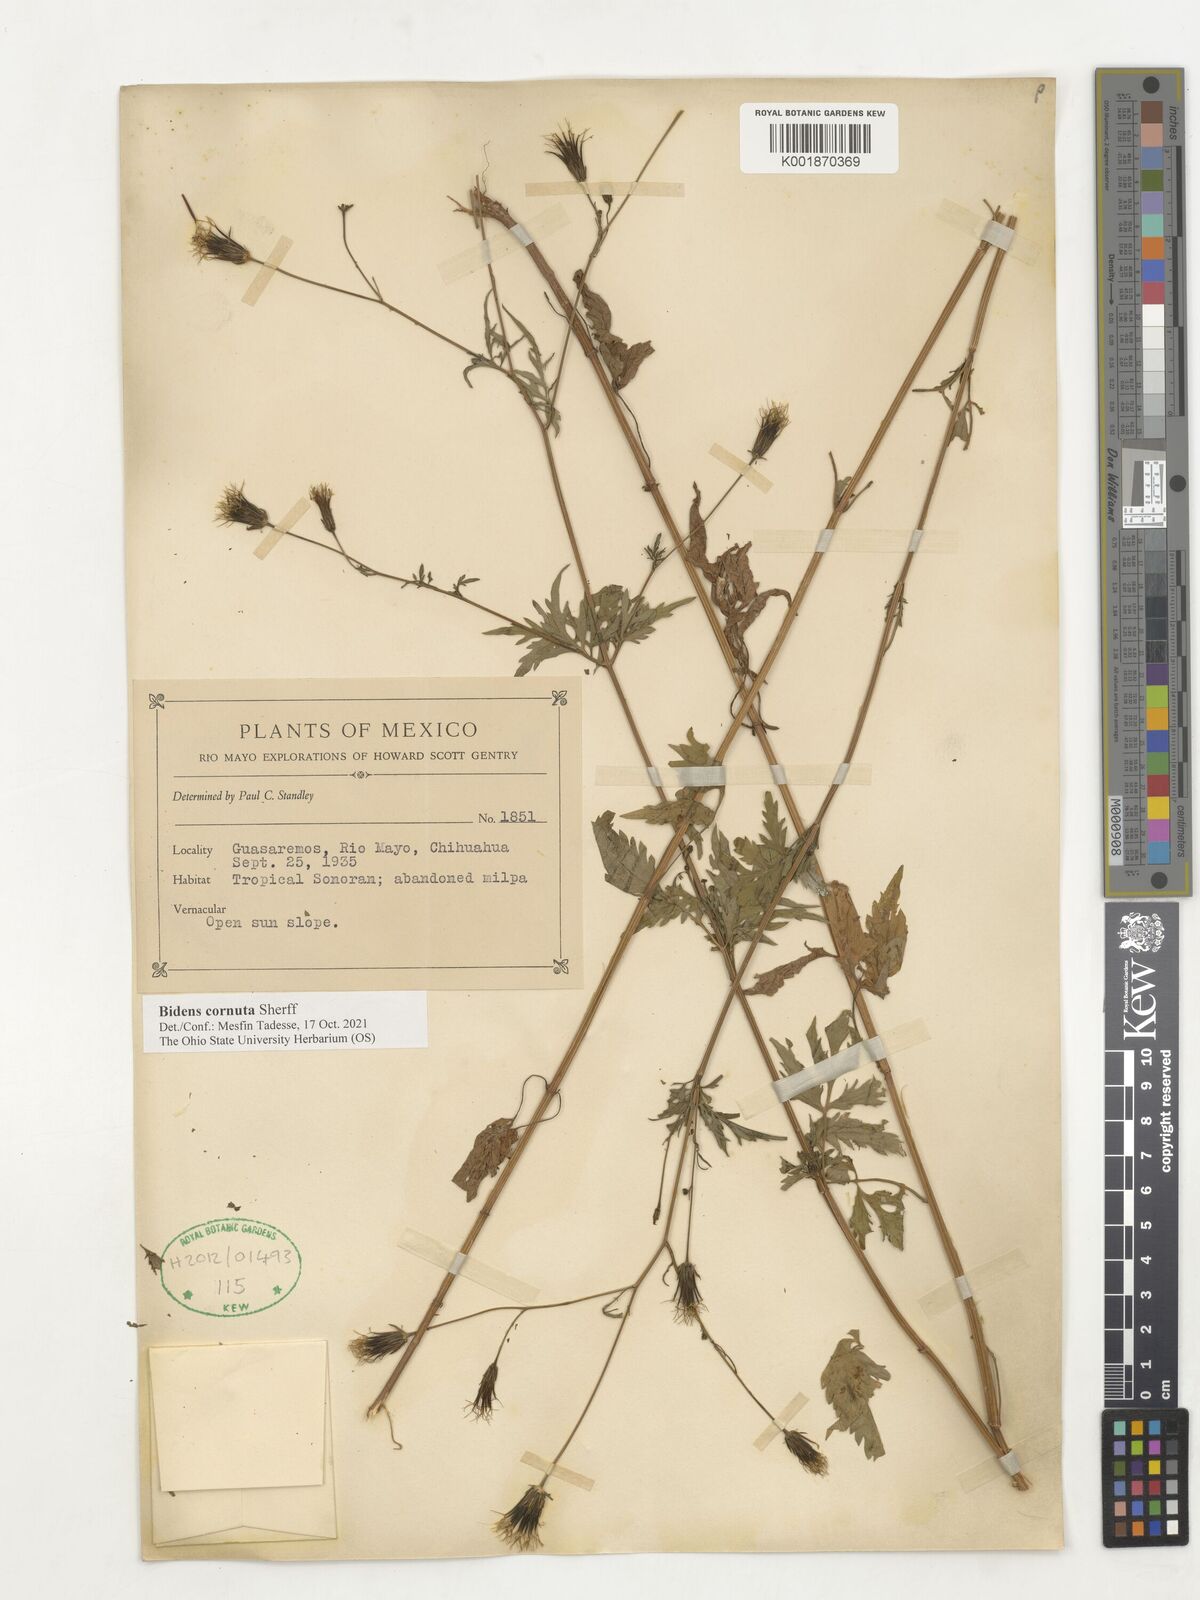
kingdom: Plantae
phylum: Tracheophyta
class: Magnoliopsida
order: Asterales
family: Asteraceae
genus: Bidens
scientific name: Bidens cornuta
